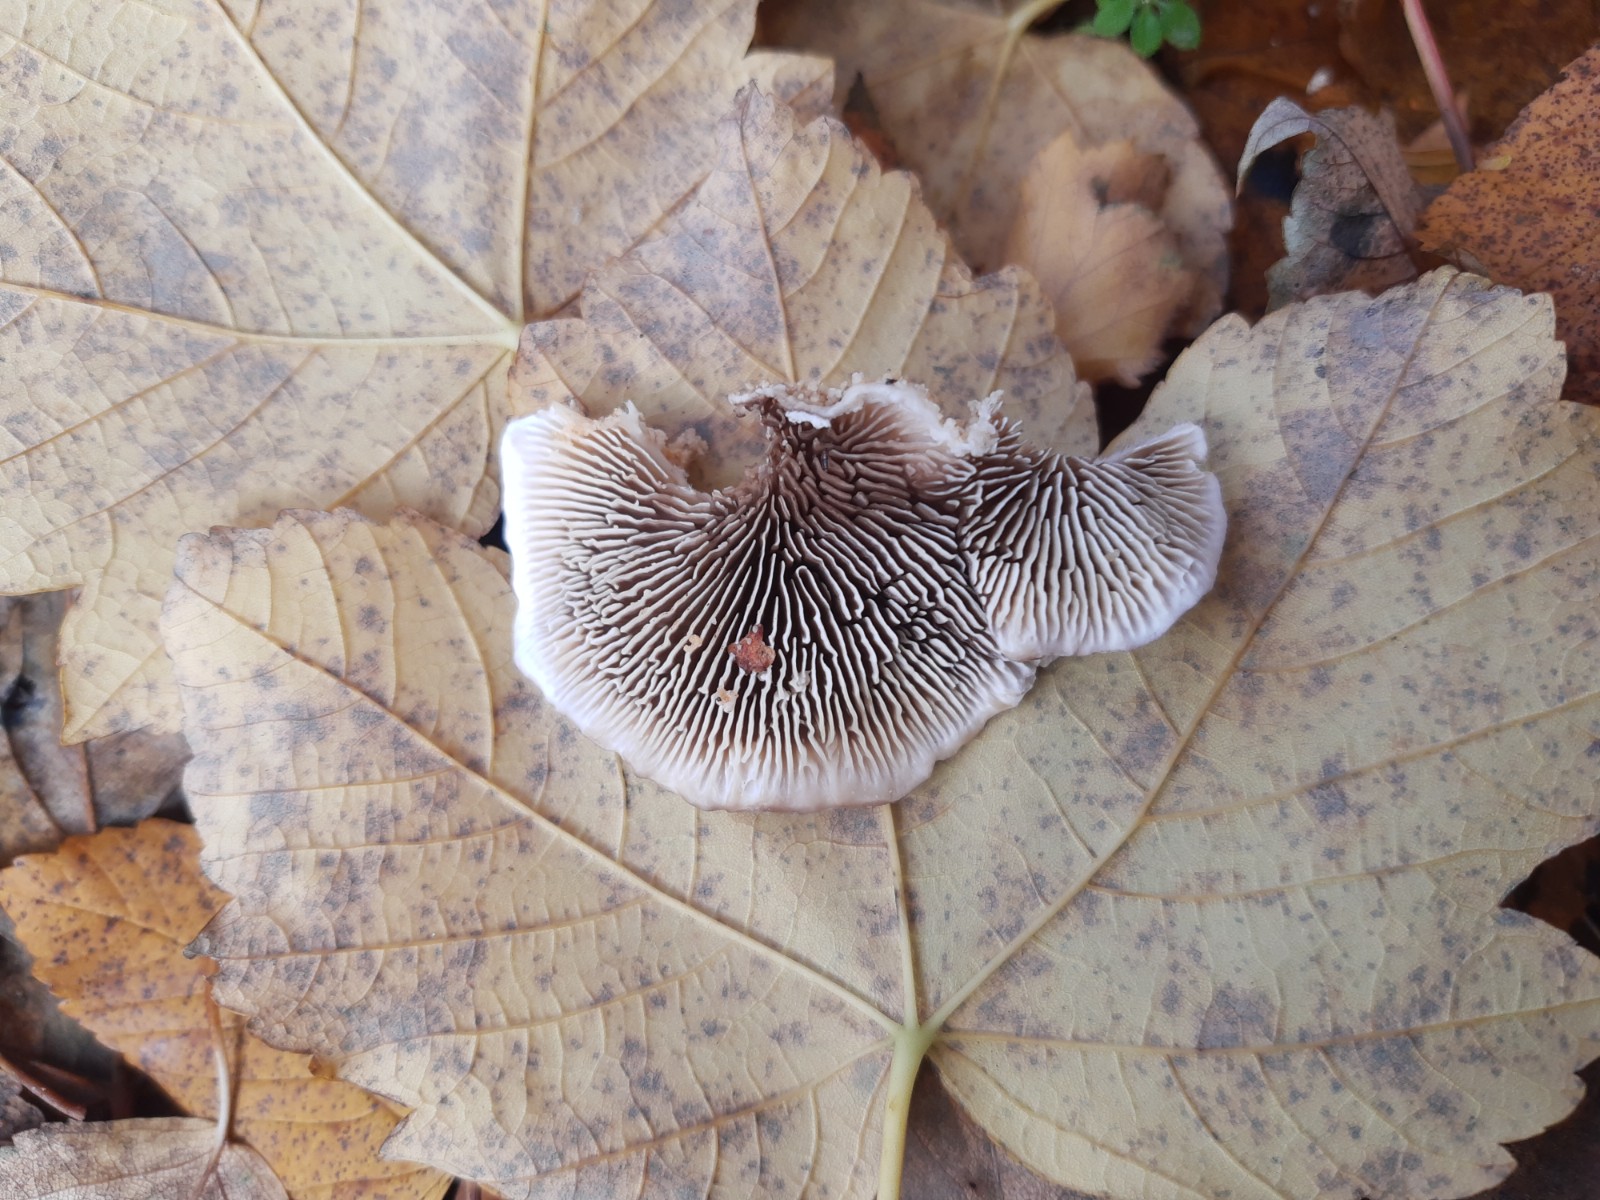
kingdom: Fungi
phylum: Basidiomycota
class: Agaricomycetes
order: Polyporales
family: Polyporaceae
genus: Lenzites
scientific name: Lenzites betulinus
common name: birke-læderporesvamp
